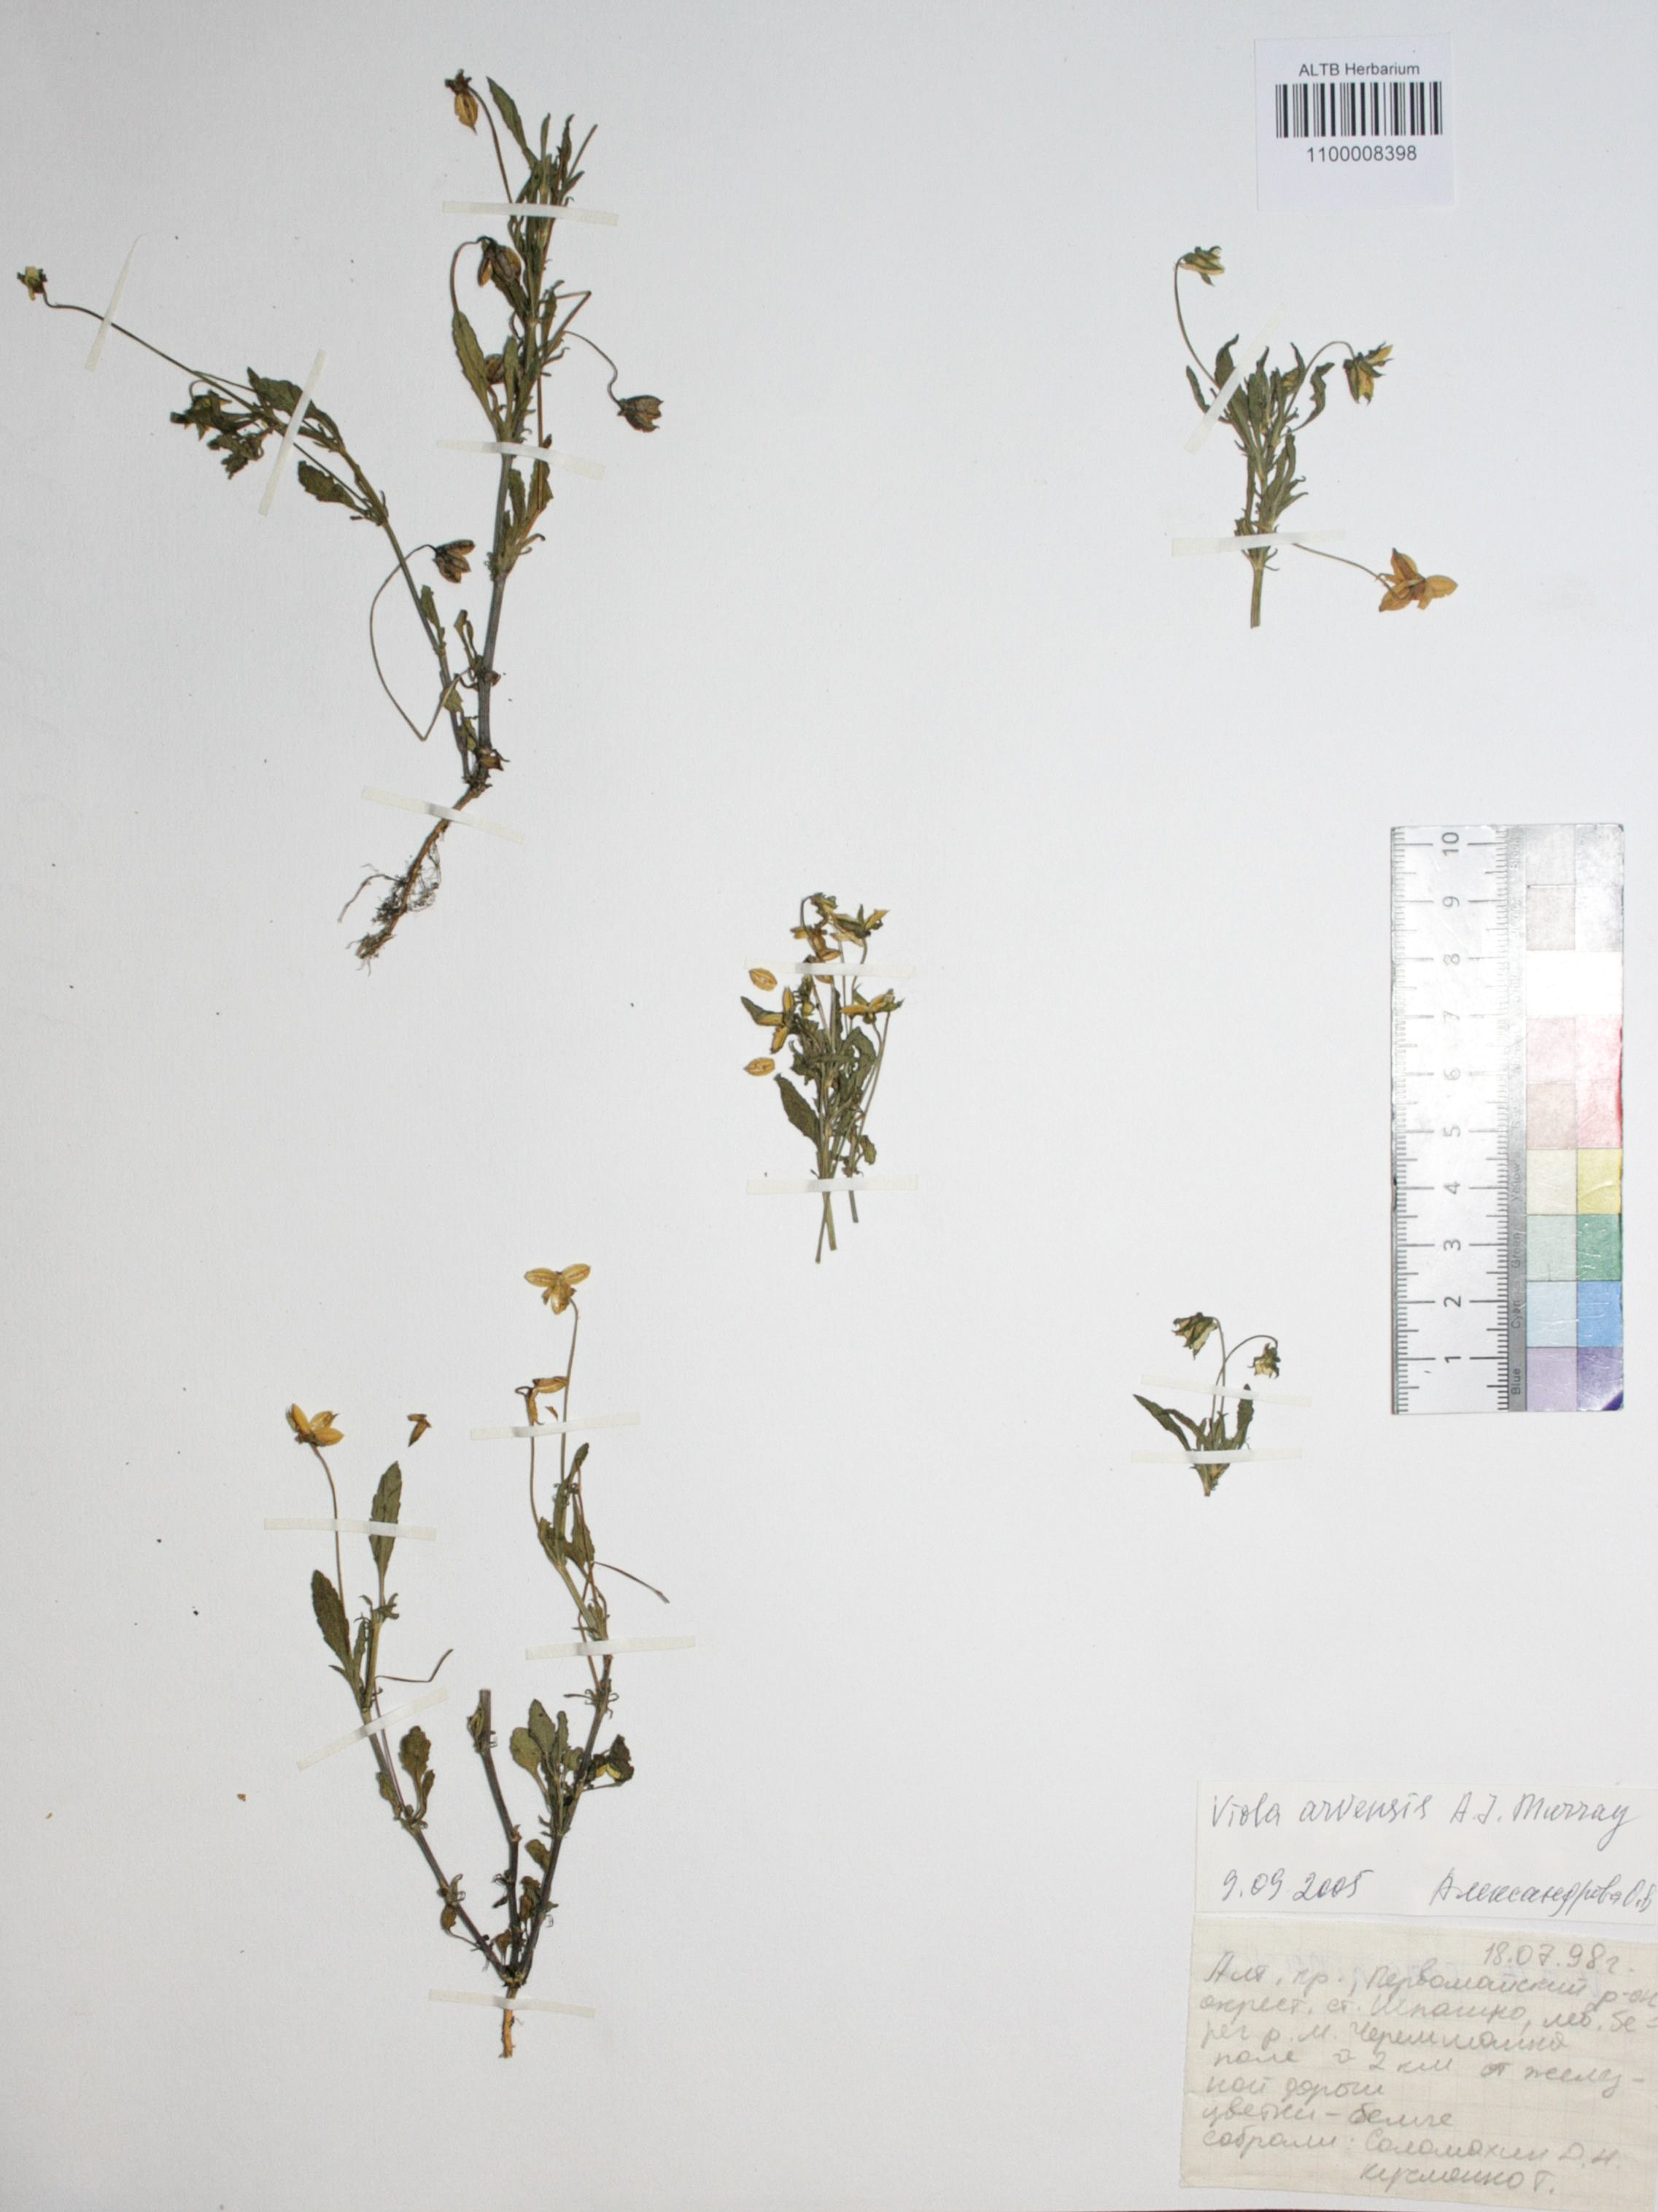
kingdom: Plantae
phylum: Tracheophyta
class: Magnoliopsida
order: Malpighiales
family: Violaceae
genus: Viola
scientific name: Viola arvensis
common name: Field pansy
